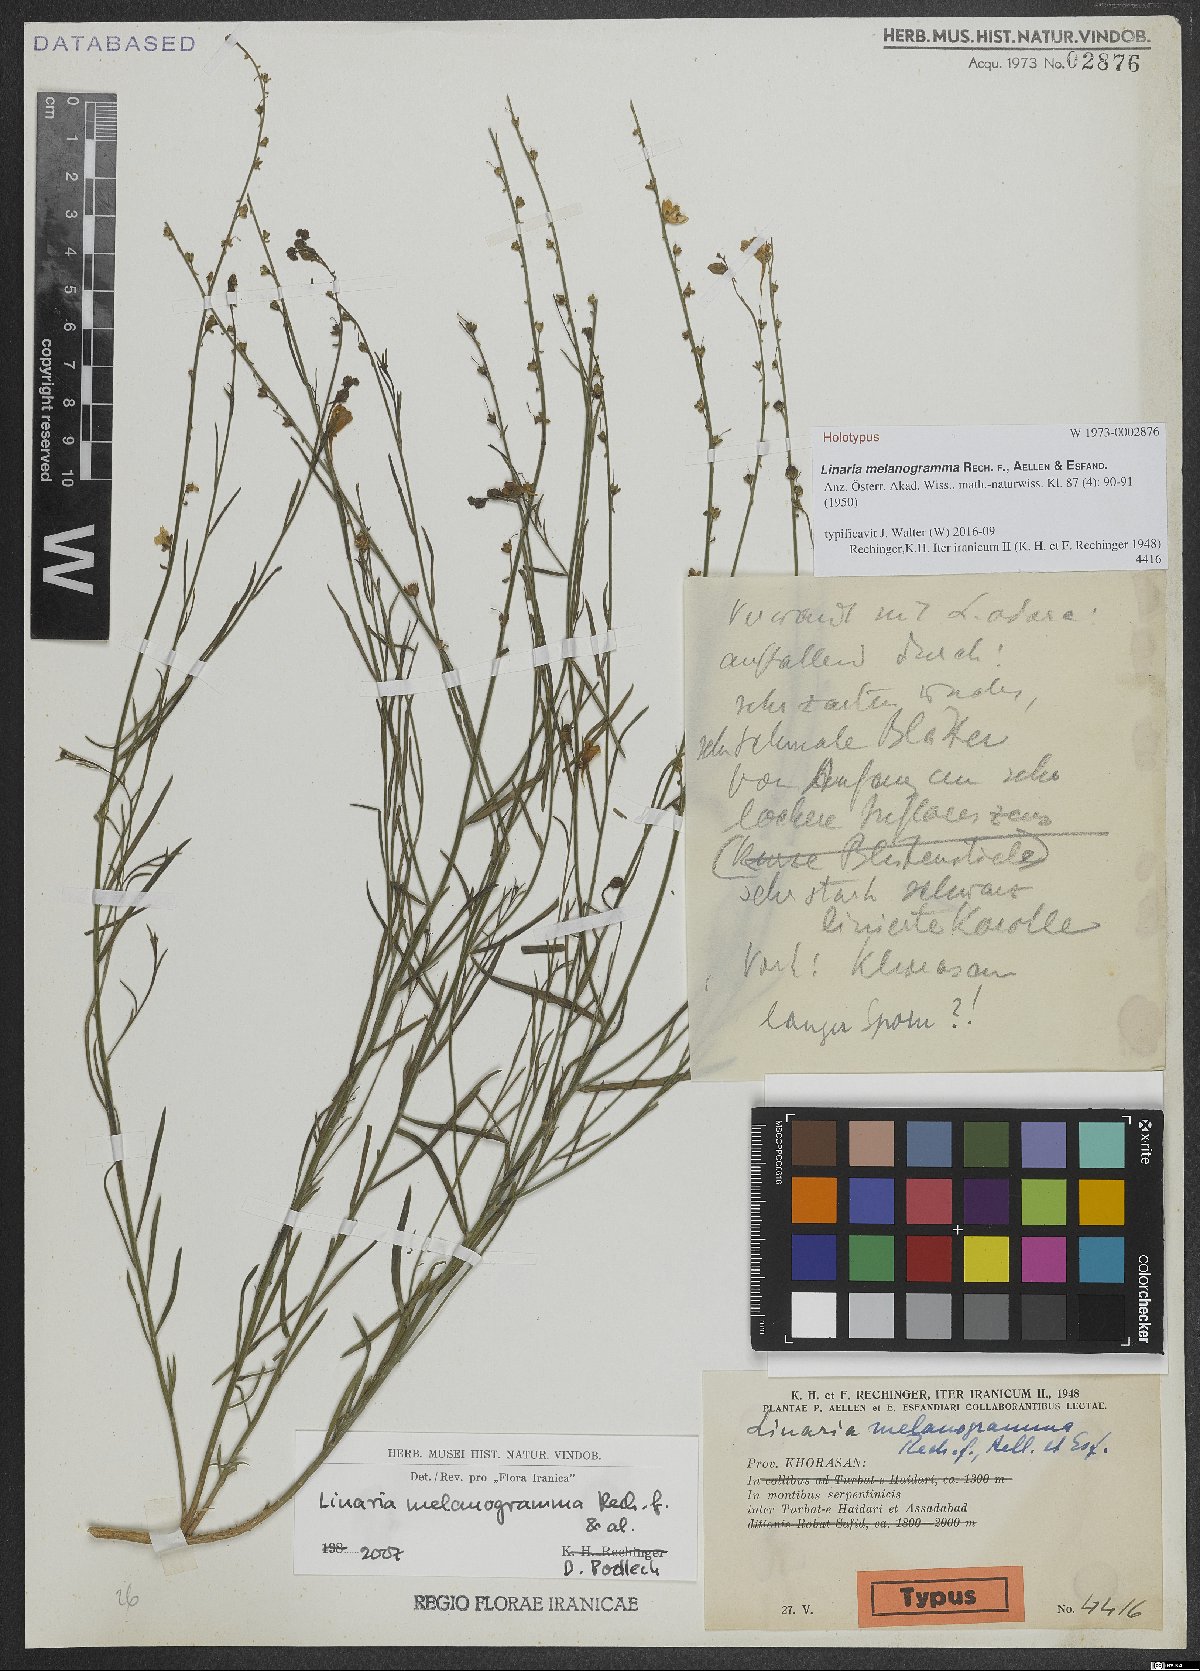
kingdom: Plantae
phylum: Tracheophyta
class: Magnoliopsida
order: Lamiales
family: Plantaginaceae
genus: Linaria
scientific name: Linaria melanogramma
